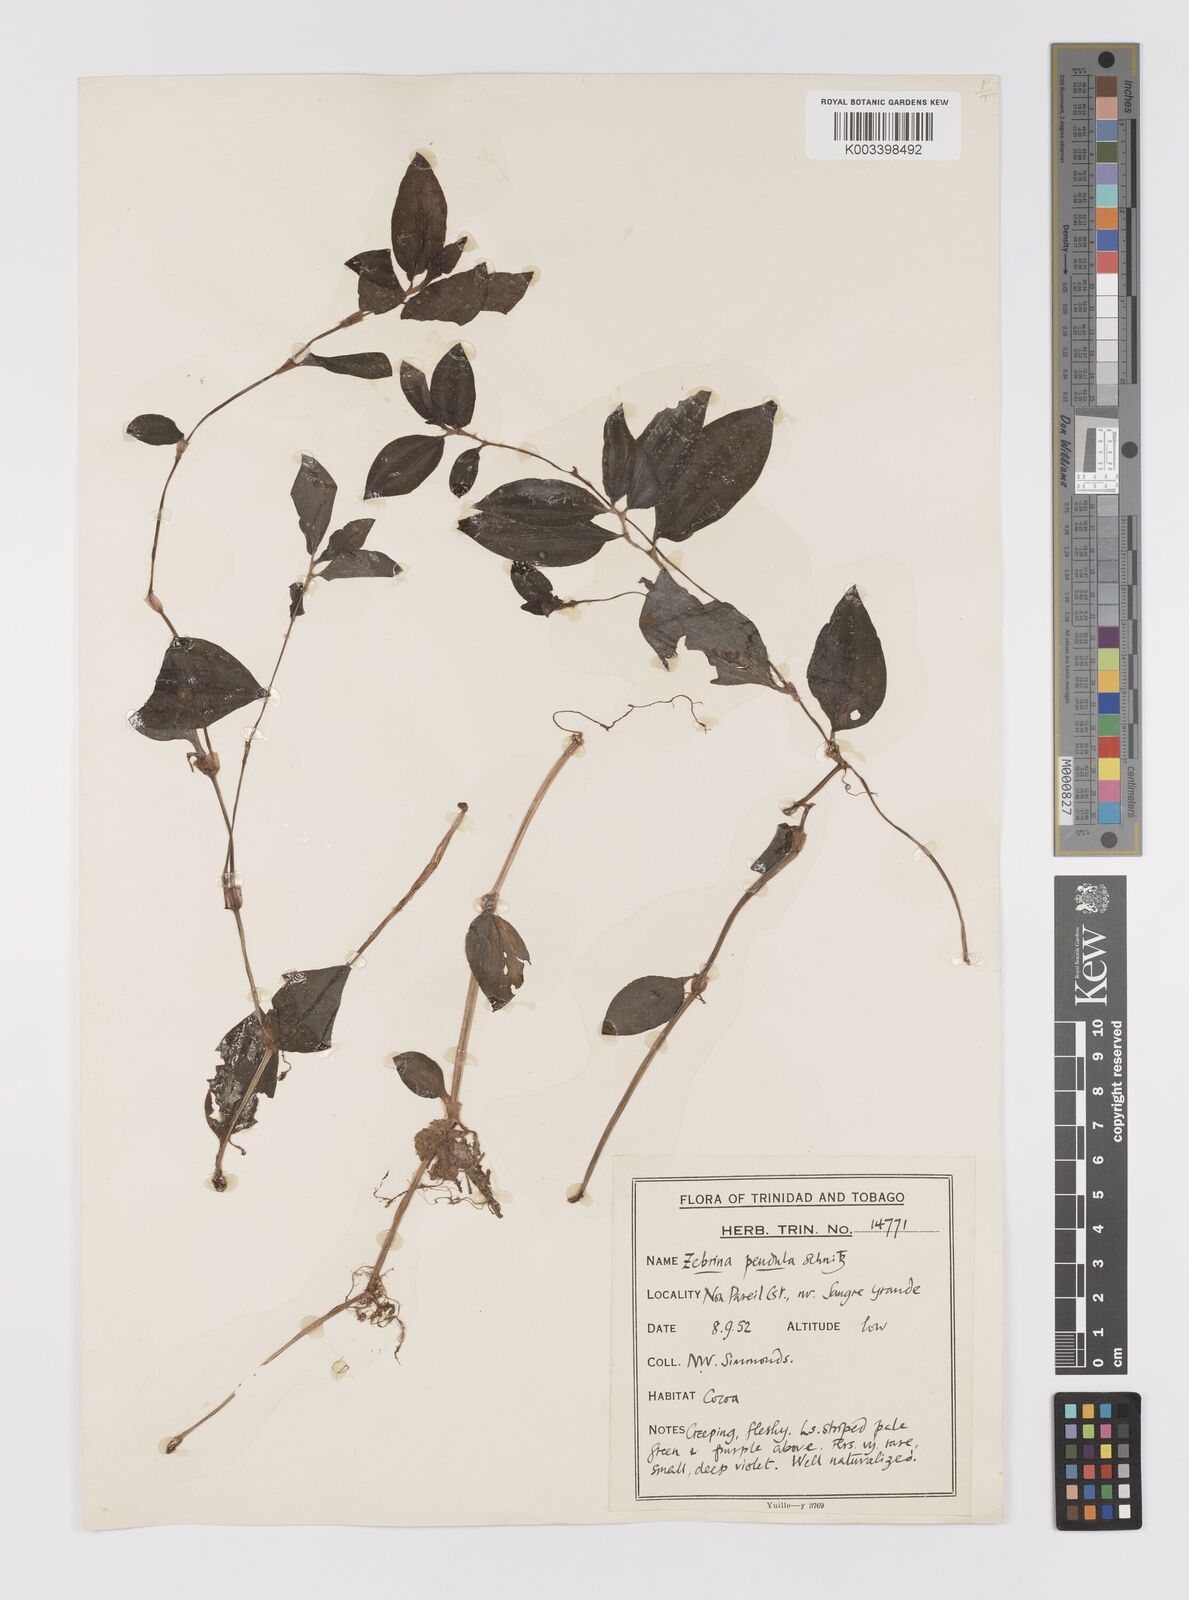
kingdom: Plantae
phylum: Tracheophyta
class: Liliopsida
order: Commelinales
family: Commelinaceae
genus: Tradescantia
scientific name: Tradescantia zebrina
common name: Inchplant
